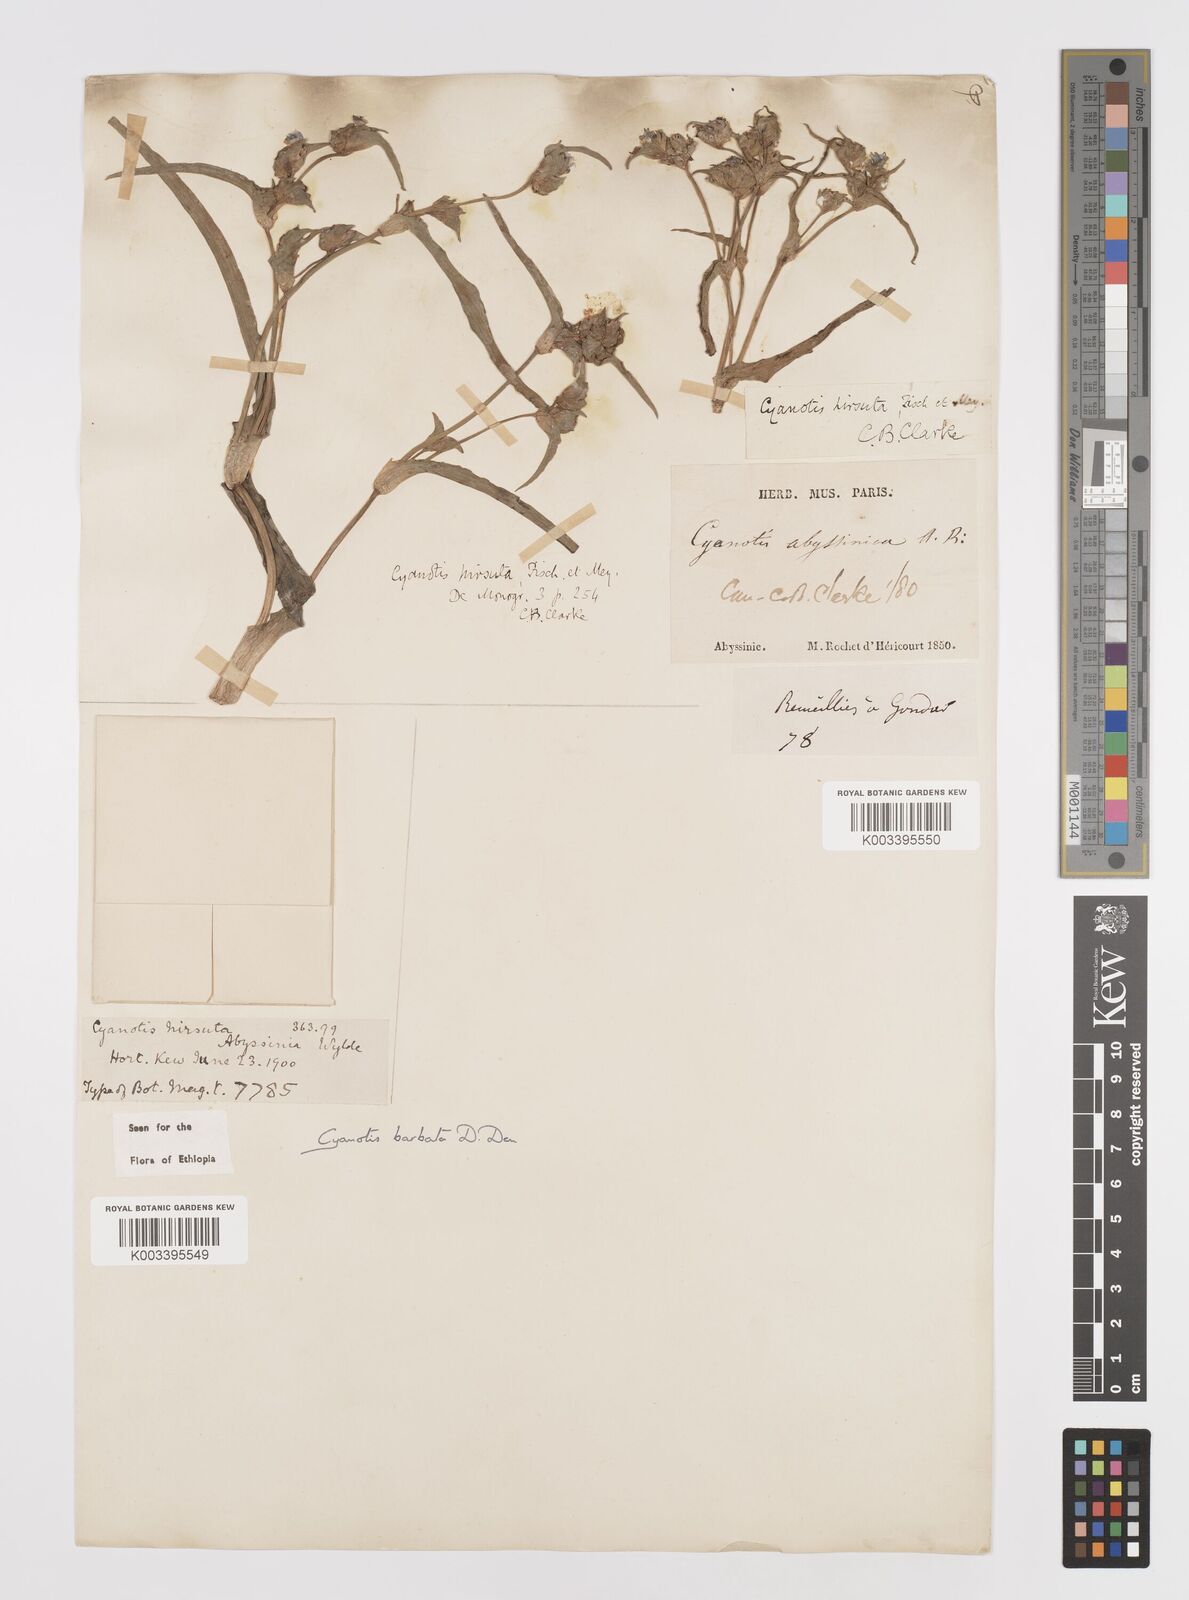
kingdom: Plantae
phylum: Tracheophyta
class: Liliopsida
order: Commelinales
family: Commelinaceae
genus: Cyanotis
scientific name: Cyanotis vaga
